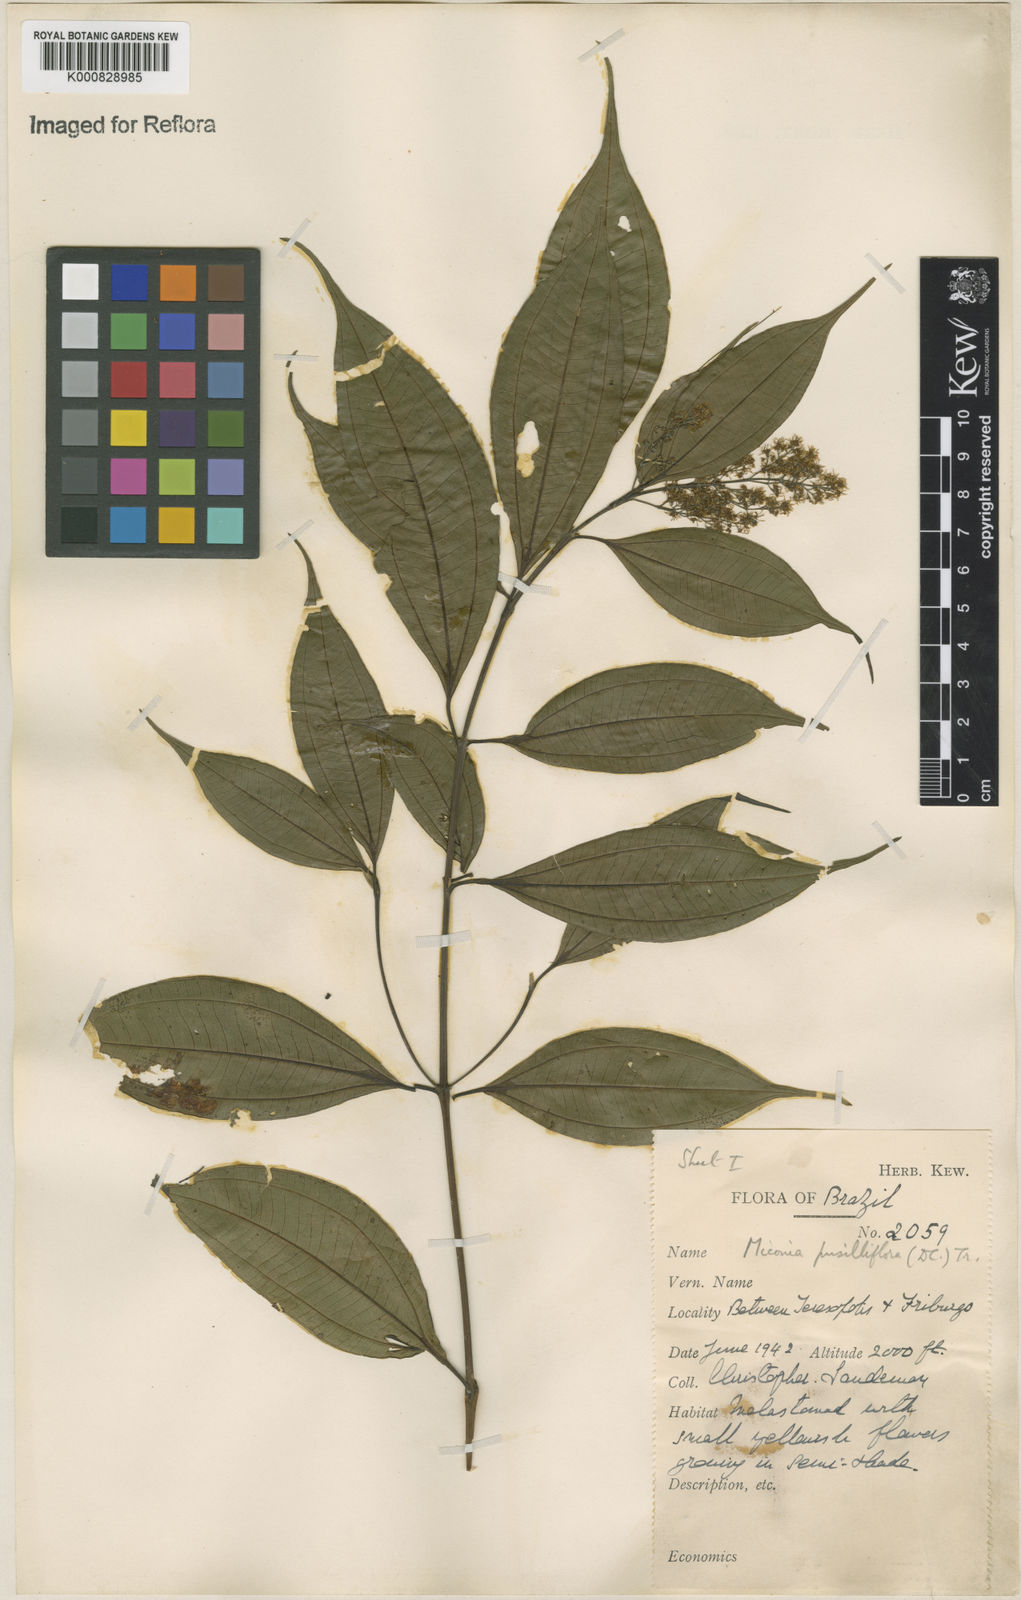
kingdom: Plantae
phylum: Tracheophyta
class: Magnoliopsida
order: Myrtales
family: Melastomataceae
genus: Miconia
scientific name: Miconia pusilliflora
